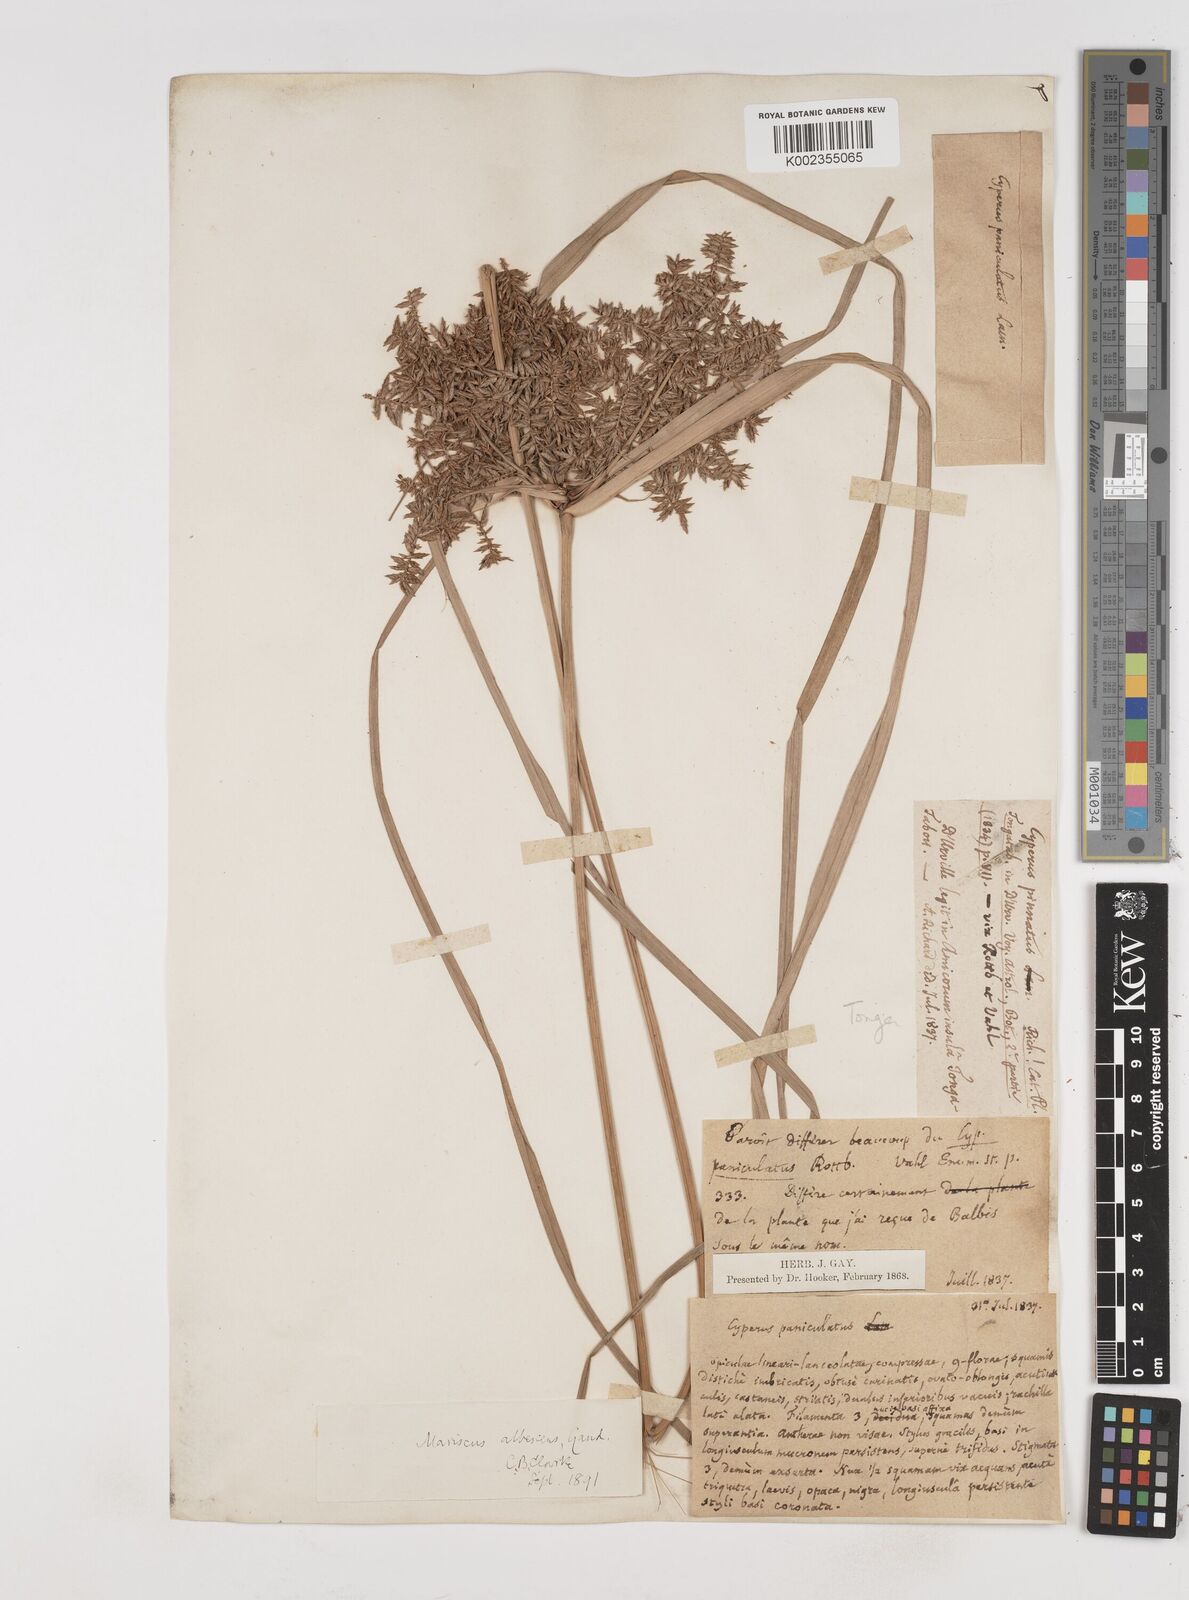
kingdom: Plantae
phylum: Tracheophyta
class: Liliopsida
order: Poales
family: Cyperaceae
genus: Cyperus
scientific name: Cyperus javanicus
